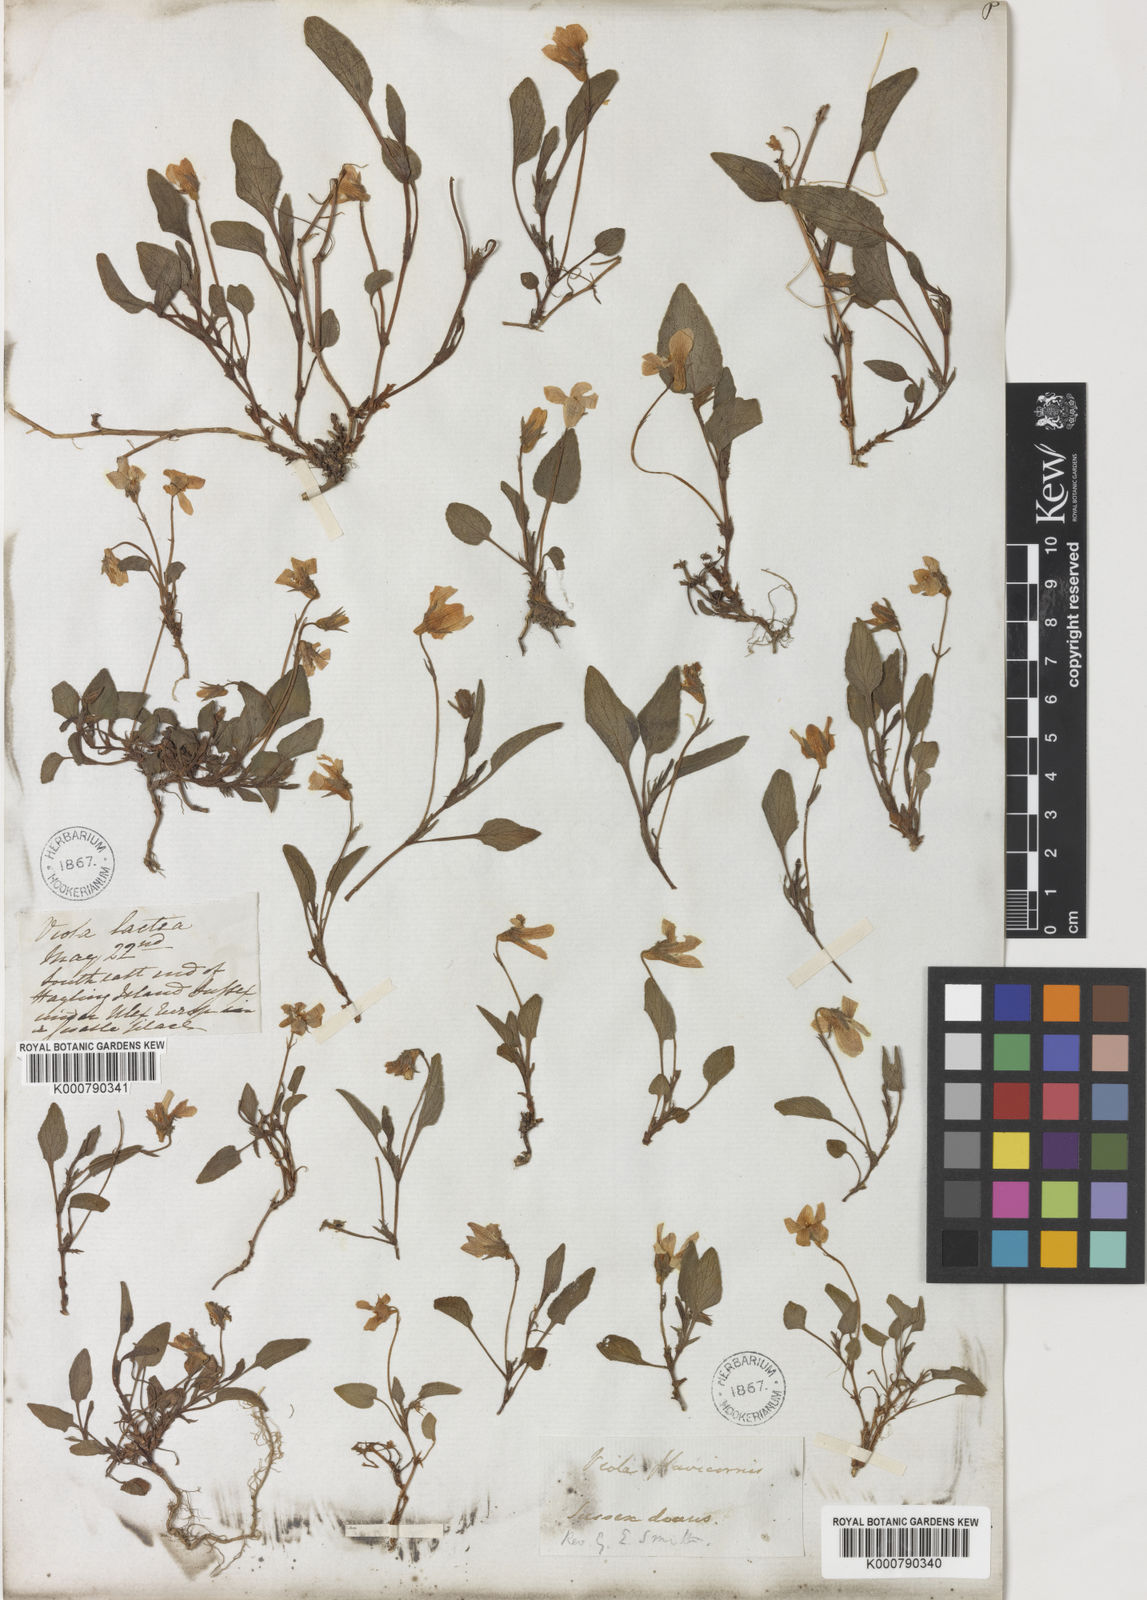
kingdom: Plantae
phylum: Tracheophyta
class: Magnoliopsida
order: Malpighiales
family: Violaceae
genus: Viola
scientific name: Viola lactea
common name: Pale dog-violet
